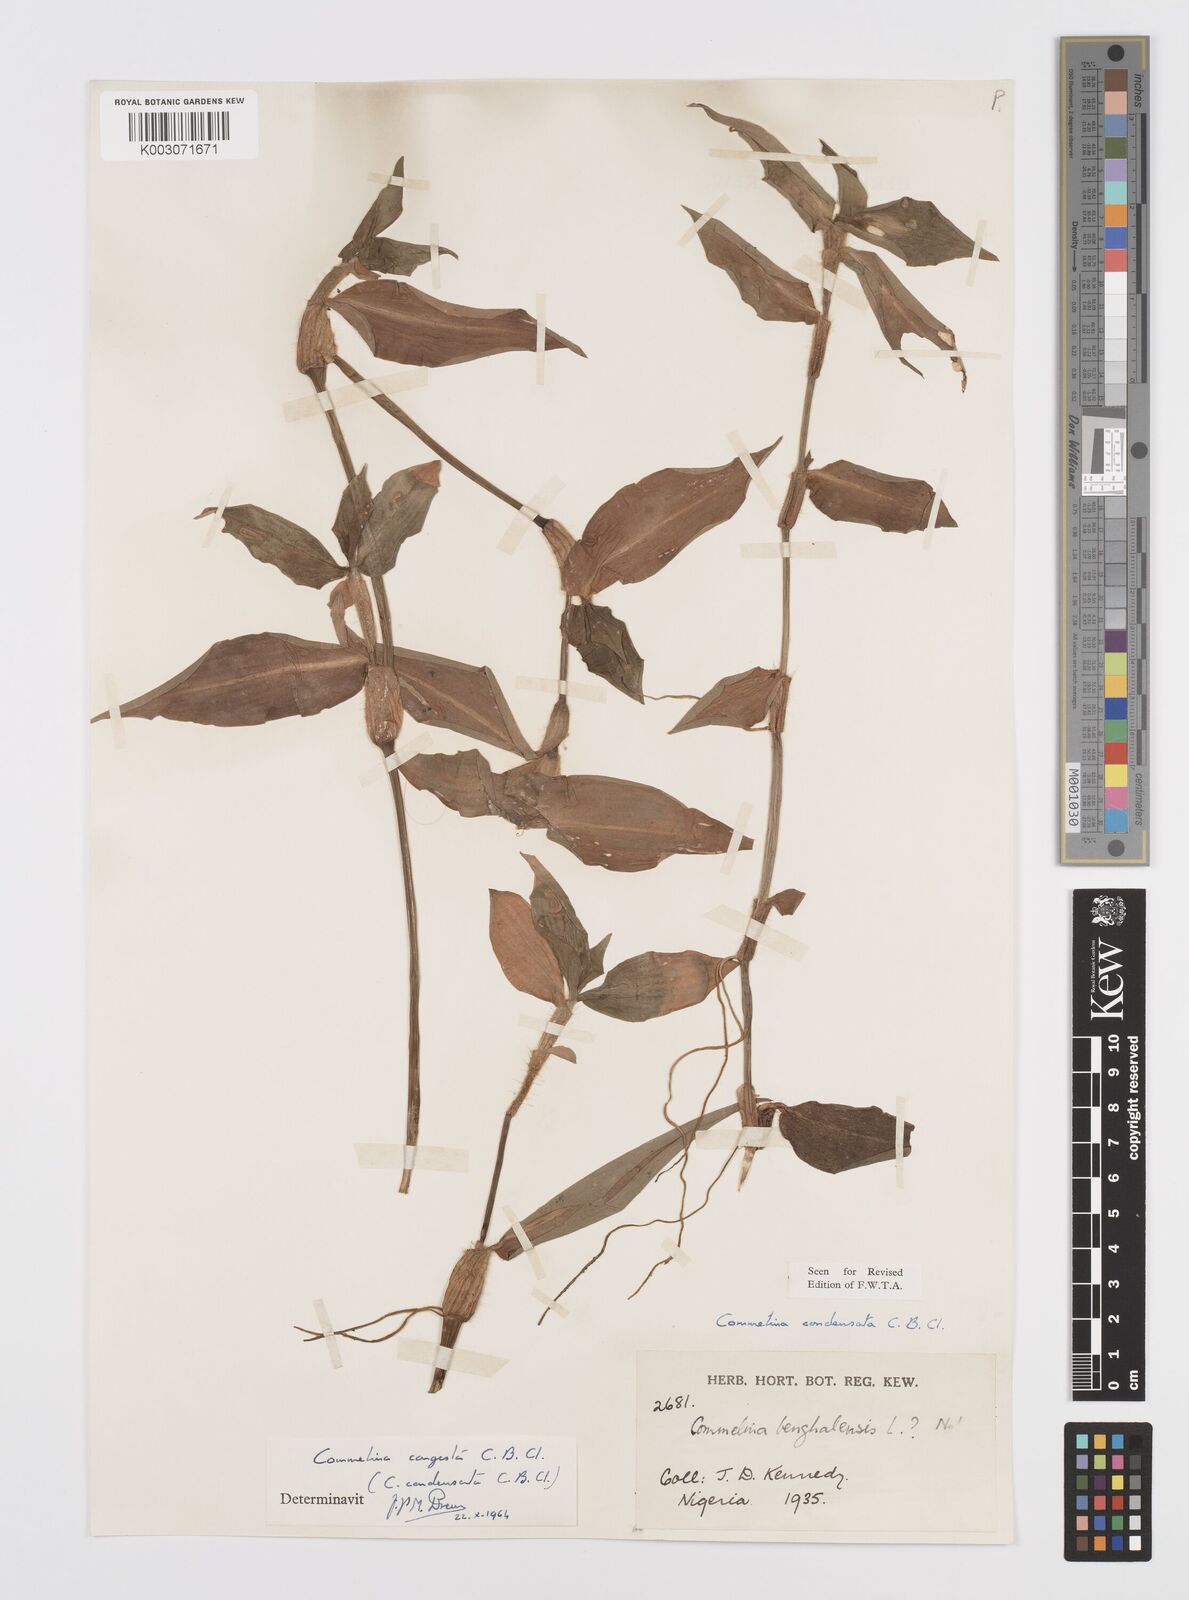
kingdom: Plantae
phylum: Tracheophyta
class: Liliopsida
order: Commelinales
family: Commelinaceae
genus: Commelina
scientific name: Commelina congesta
